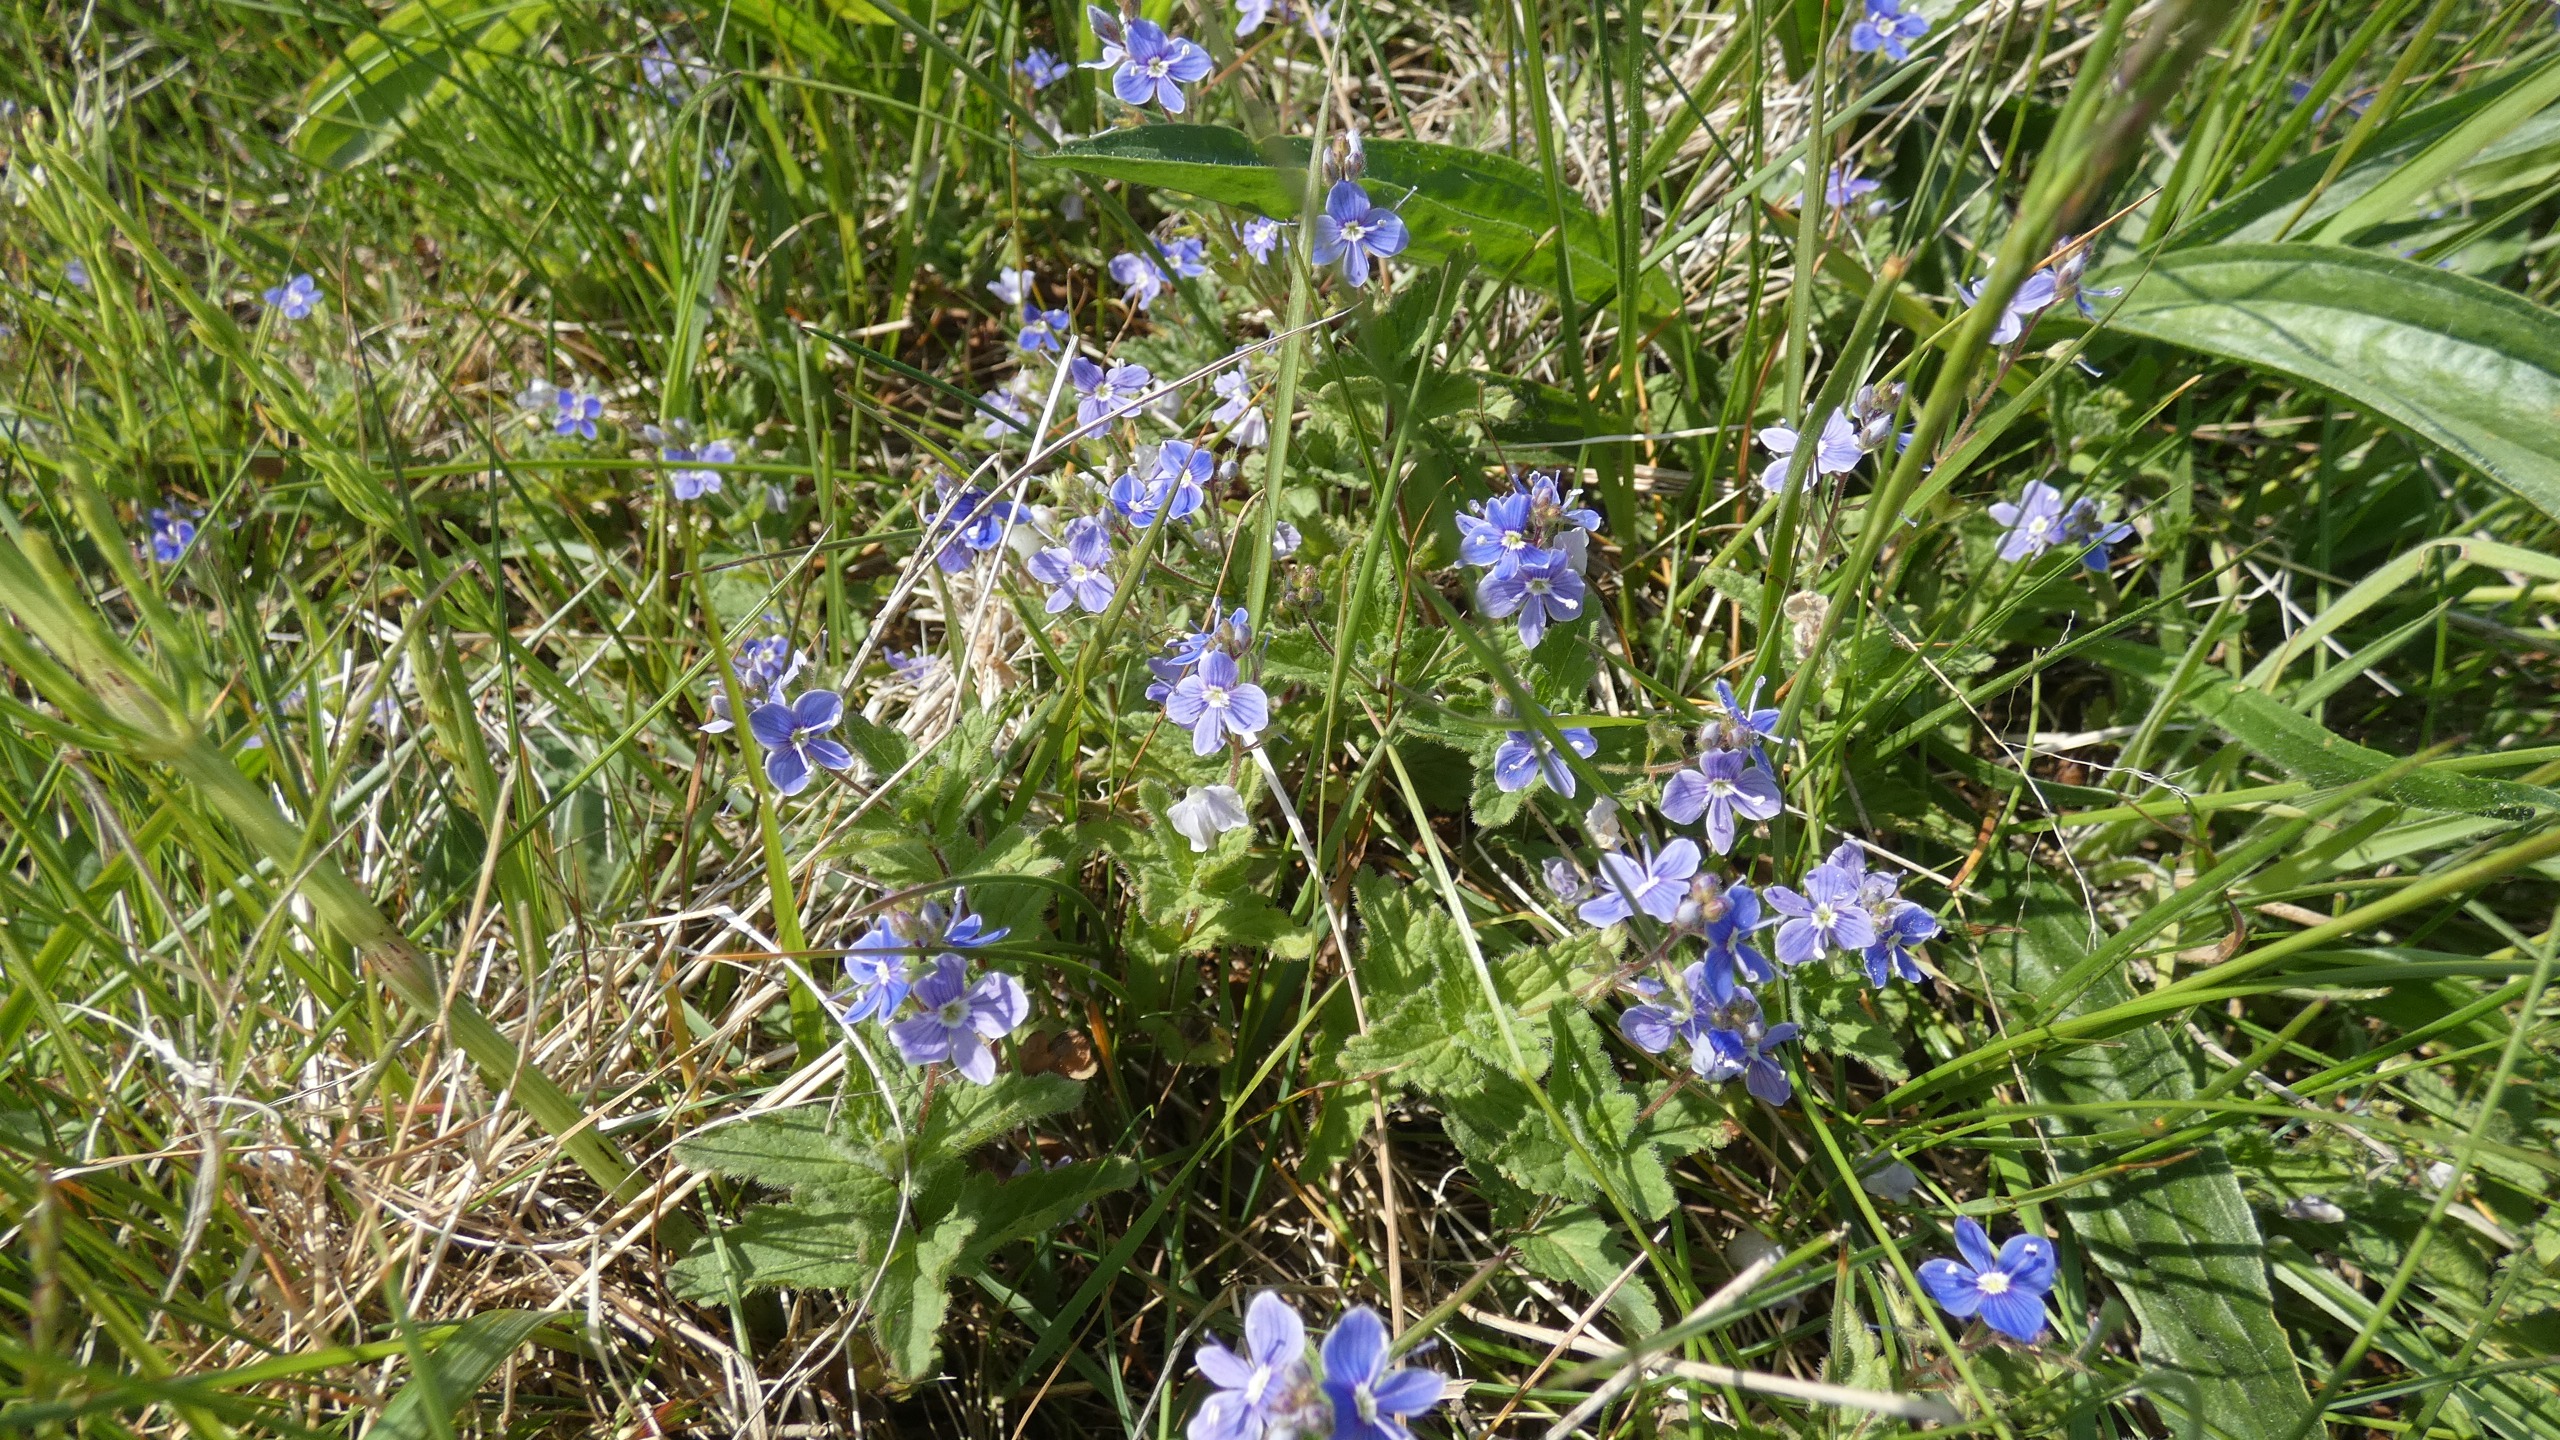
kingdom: Plantae
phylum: Tracheophyta
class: Magnoliopsida
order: Lamiales
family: Plantaginaceae
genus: Veronica
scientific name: Veronica chamaedrys
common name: Tveskægget ærenpris
